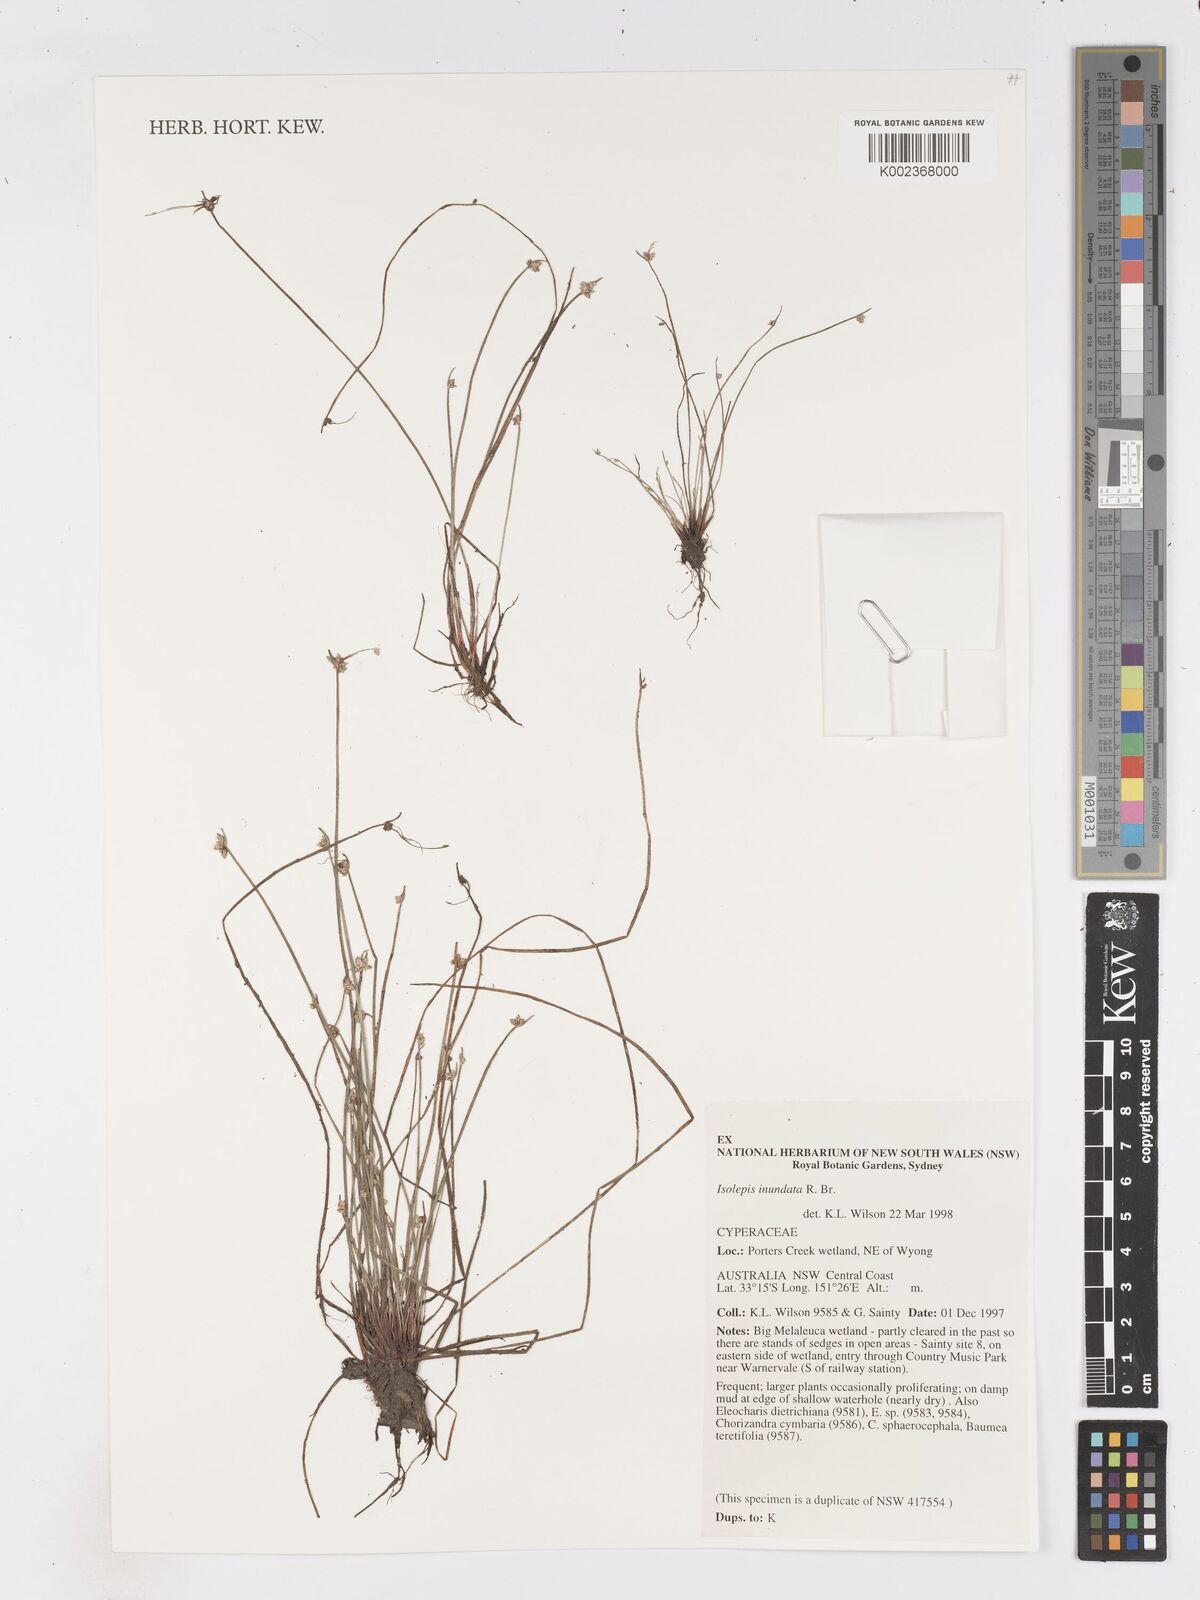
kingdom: Plantae
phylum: Tracheophyta
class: Liliopsida
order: Poales
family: Cyperaceae
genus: Isolepis
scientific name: Isolepis inundata
